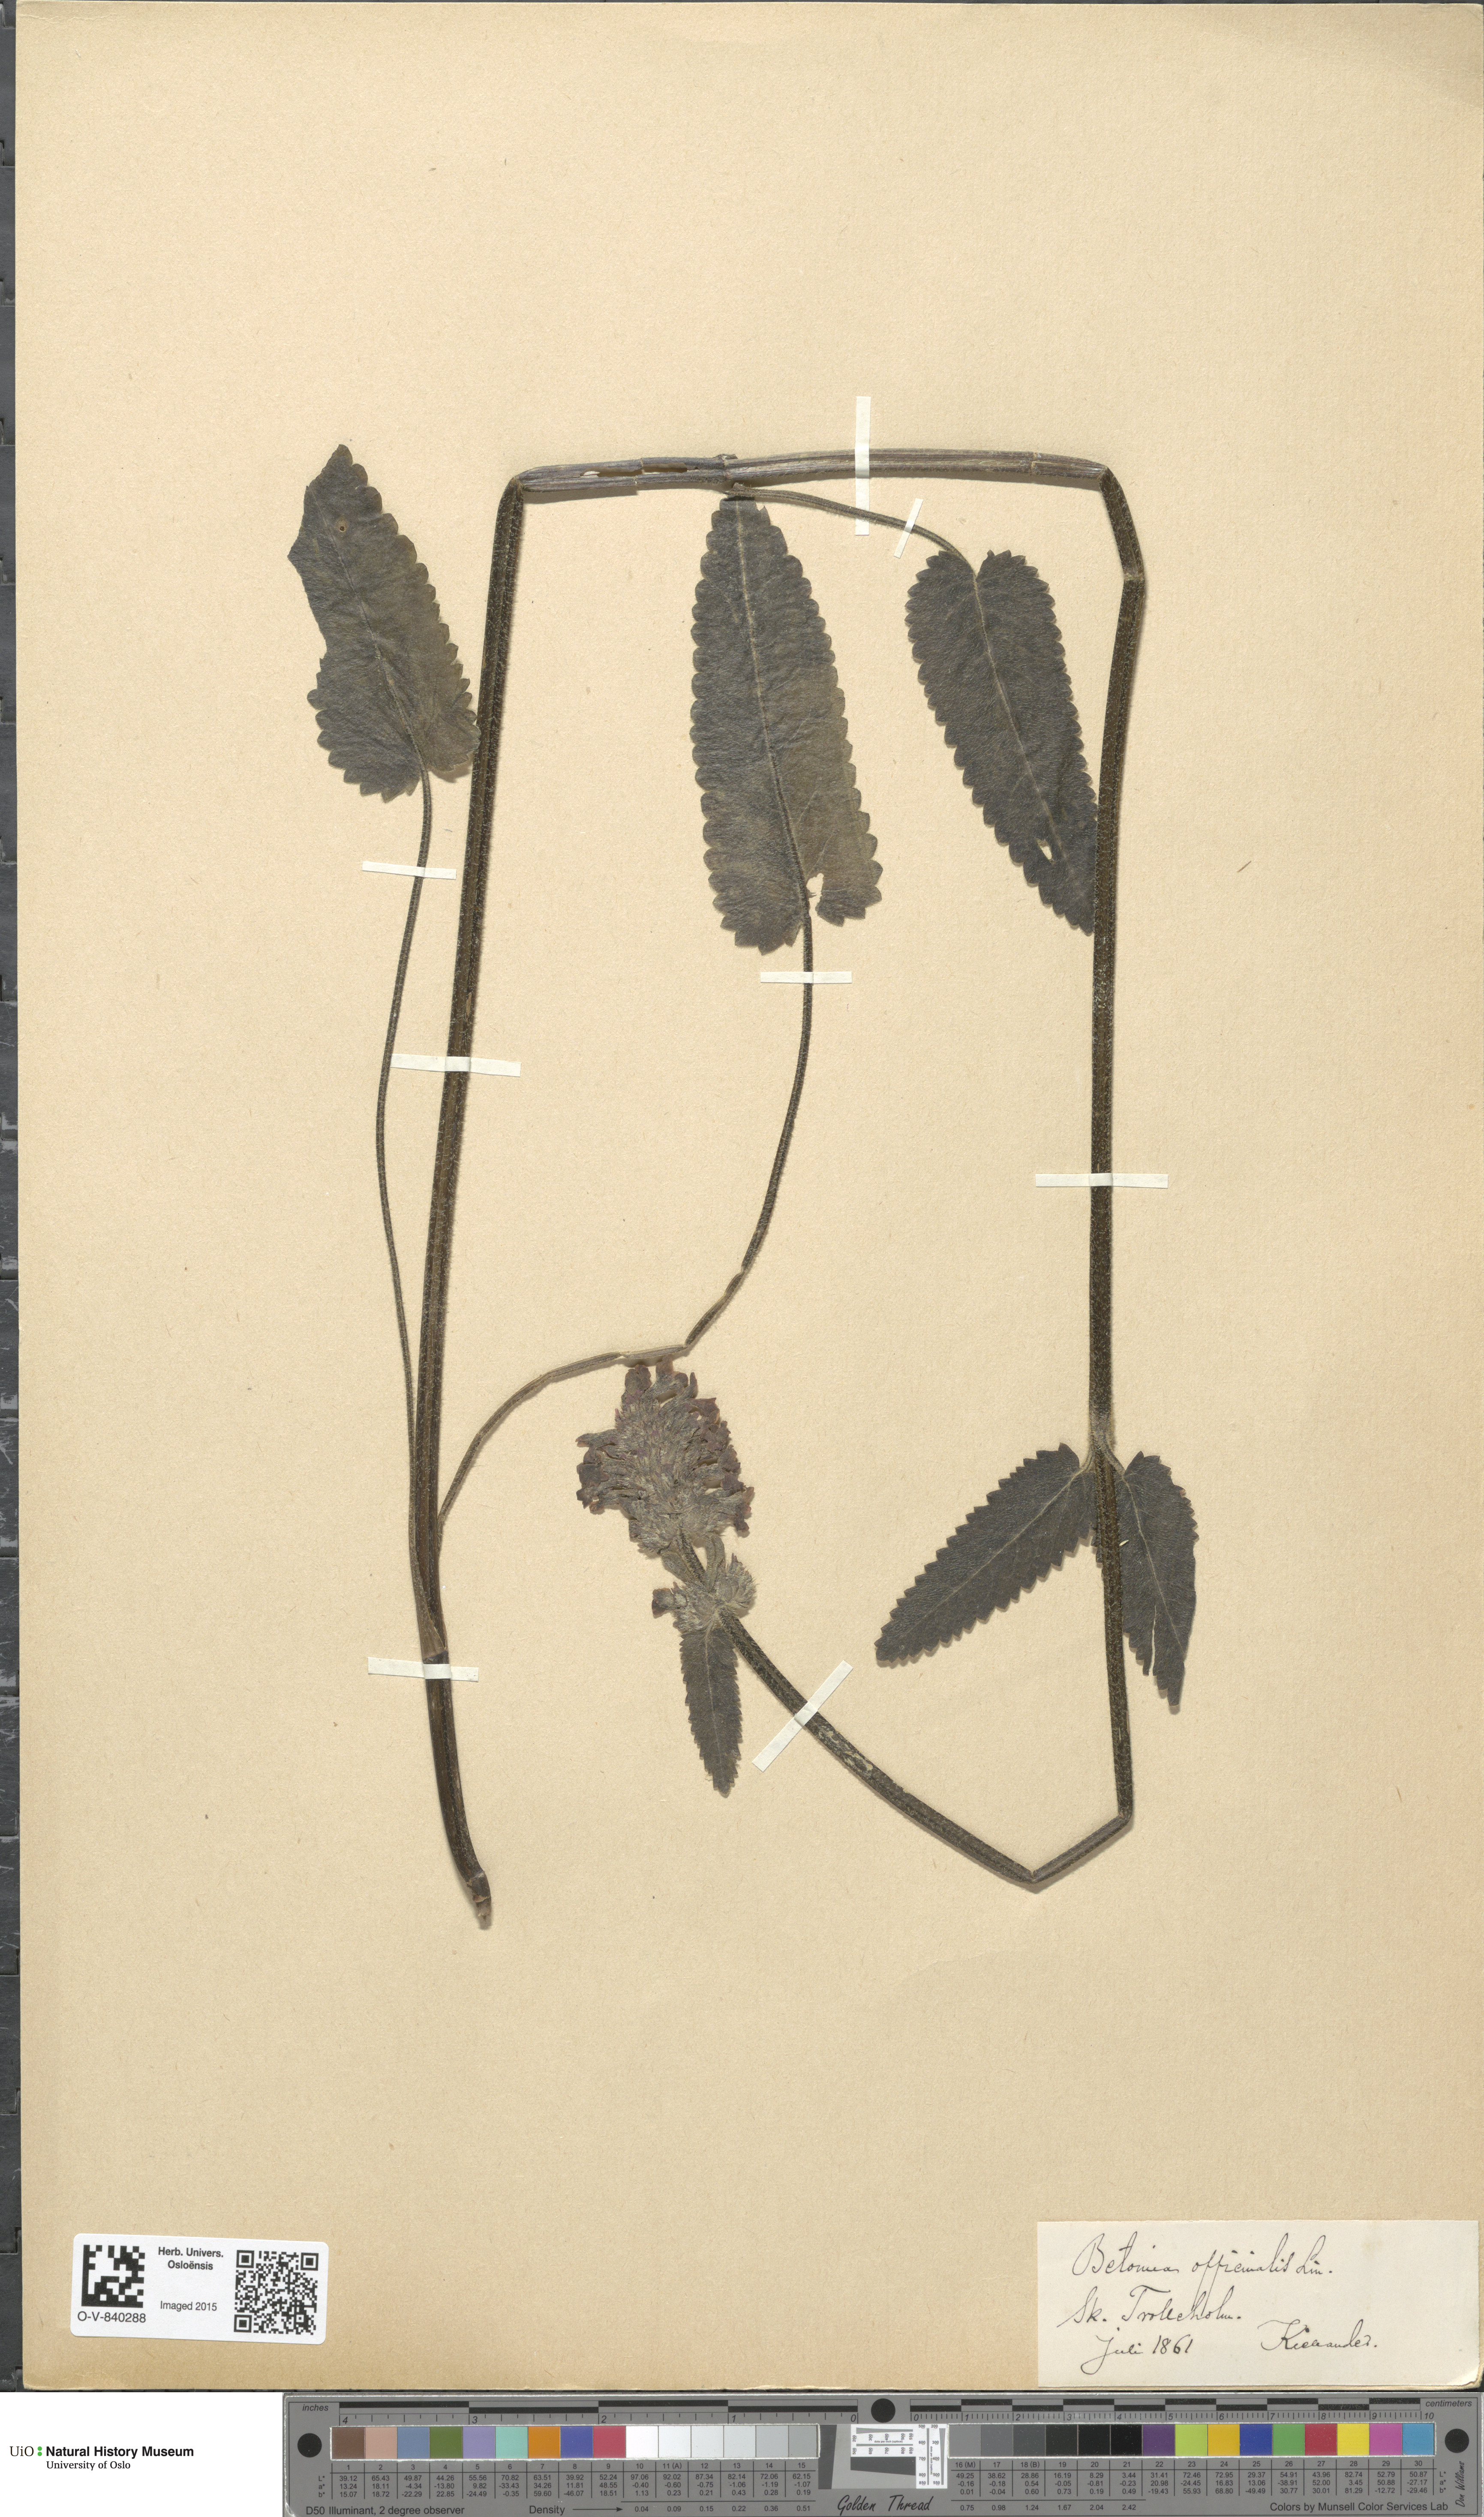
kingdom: Plantae
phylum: Tracheophyta
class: Magnoliopsida
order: Lamiales
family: Lamiaceae
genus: Betonica
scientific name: Betonica officinalis
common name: Bishop's-wort
